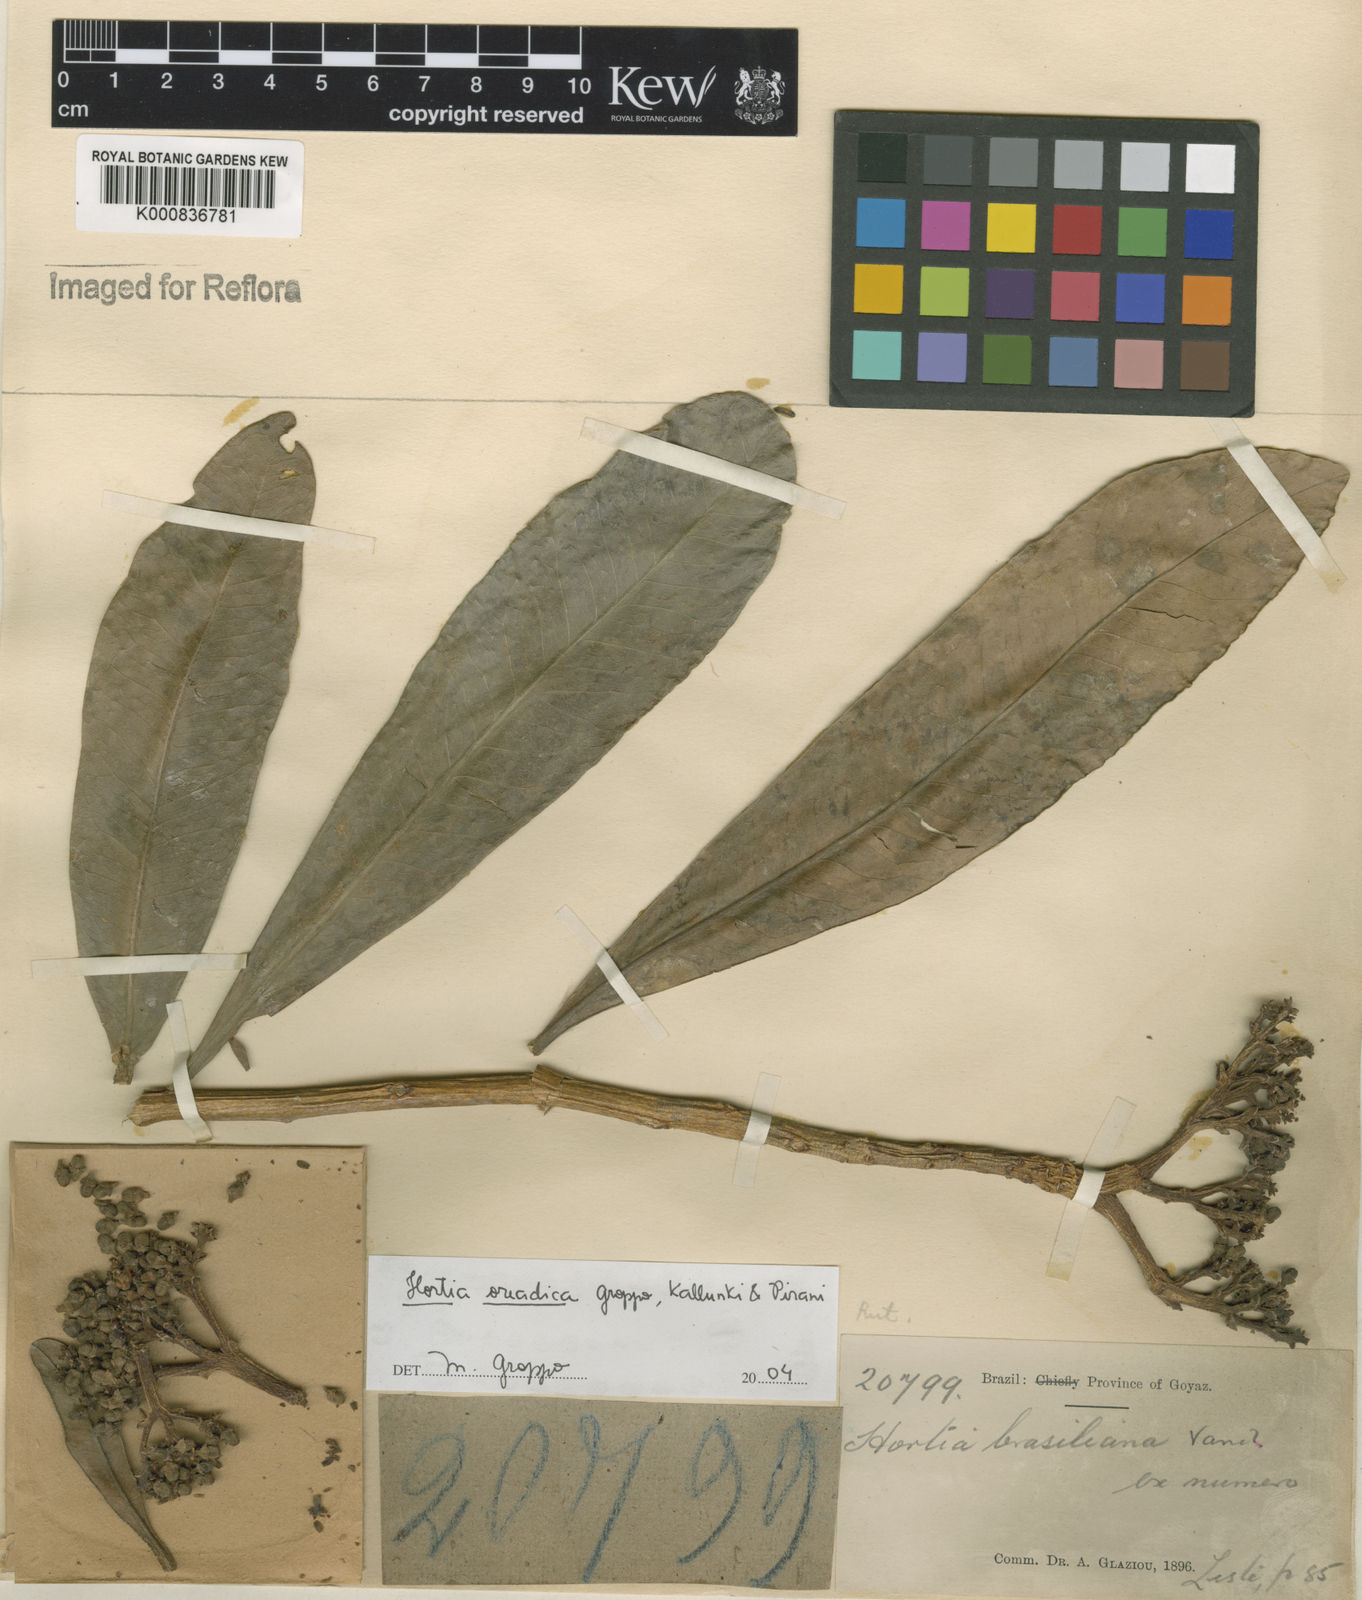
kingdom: Plantae
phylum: Tracheophyta
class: Magnoliopsida
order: Sapindales
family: Rutaceae
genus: Hortia
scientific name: Hortia brasiliana
